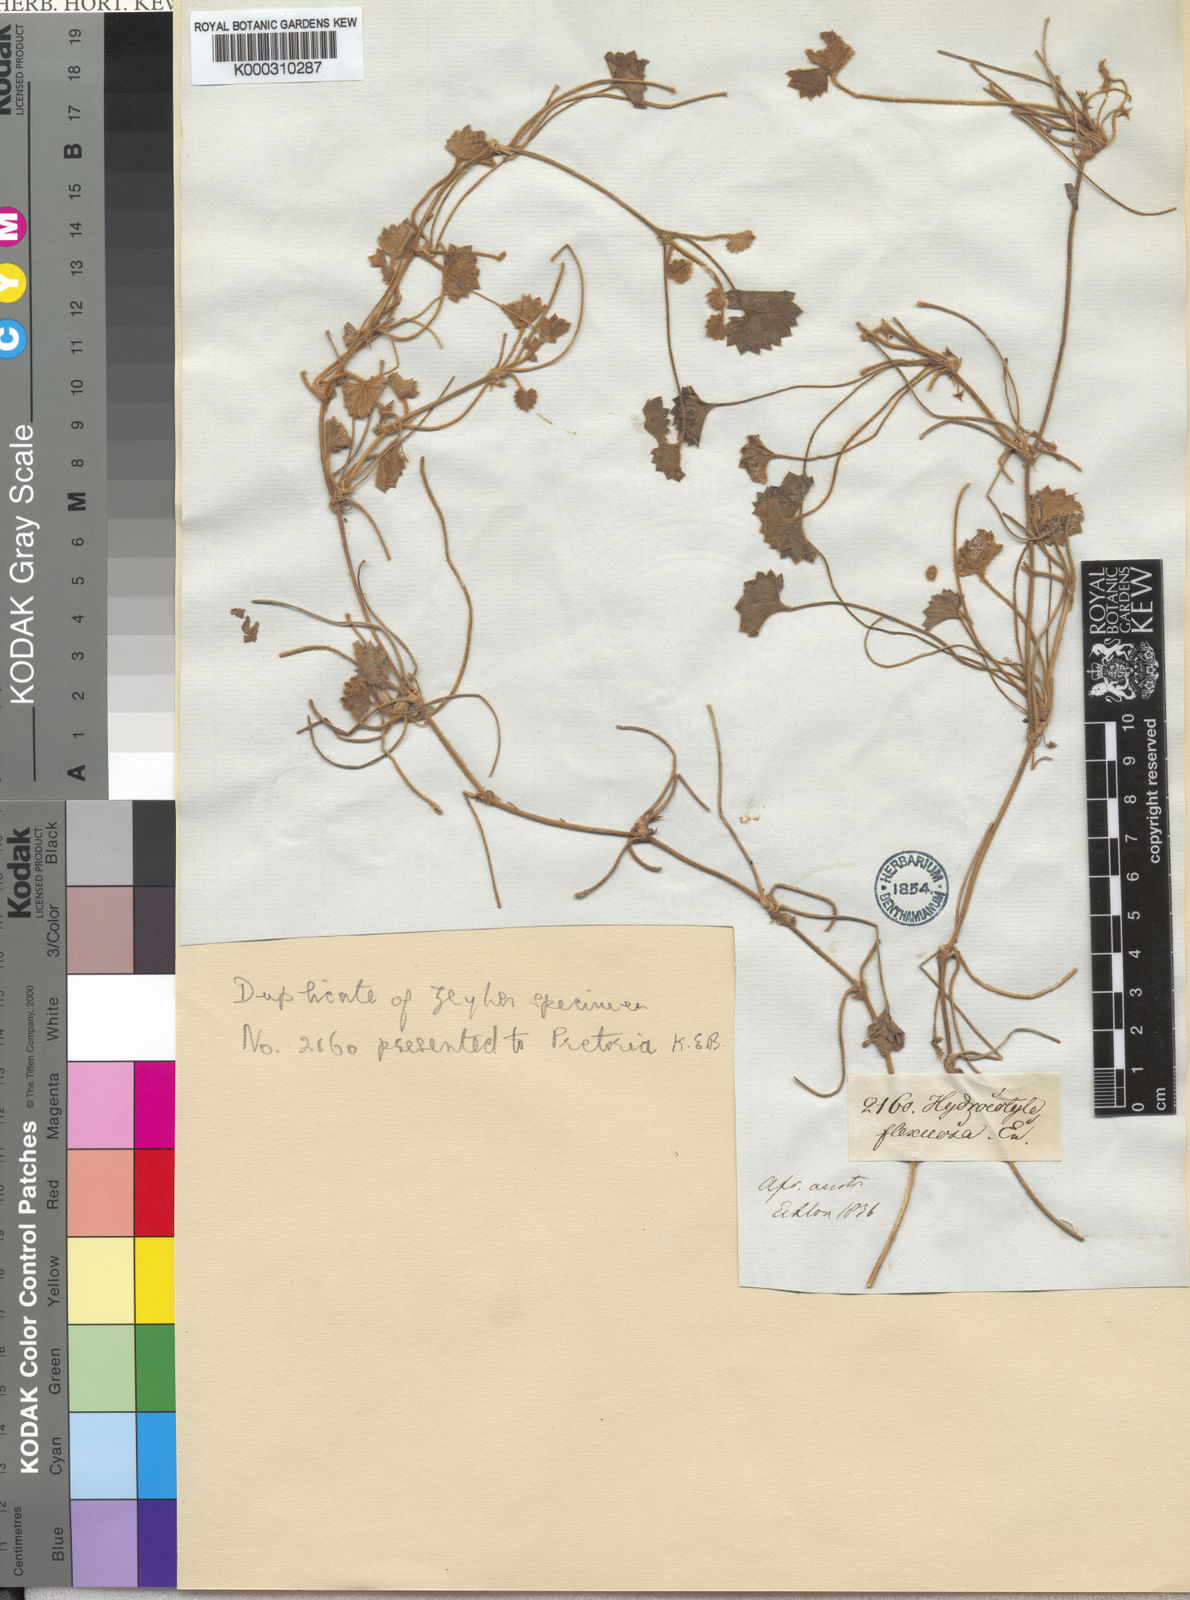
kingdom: Plantae
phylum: Tracheophyta
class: Magnoliopsida
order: Apiales
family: Apiaceae
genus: Centella
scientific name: Centella flexuosa
